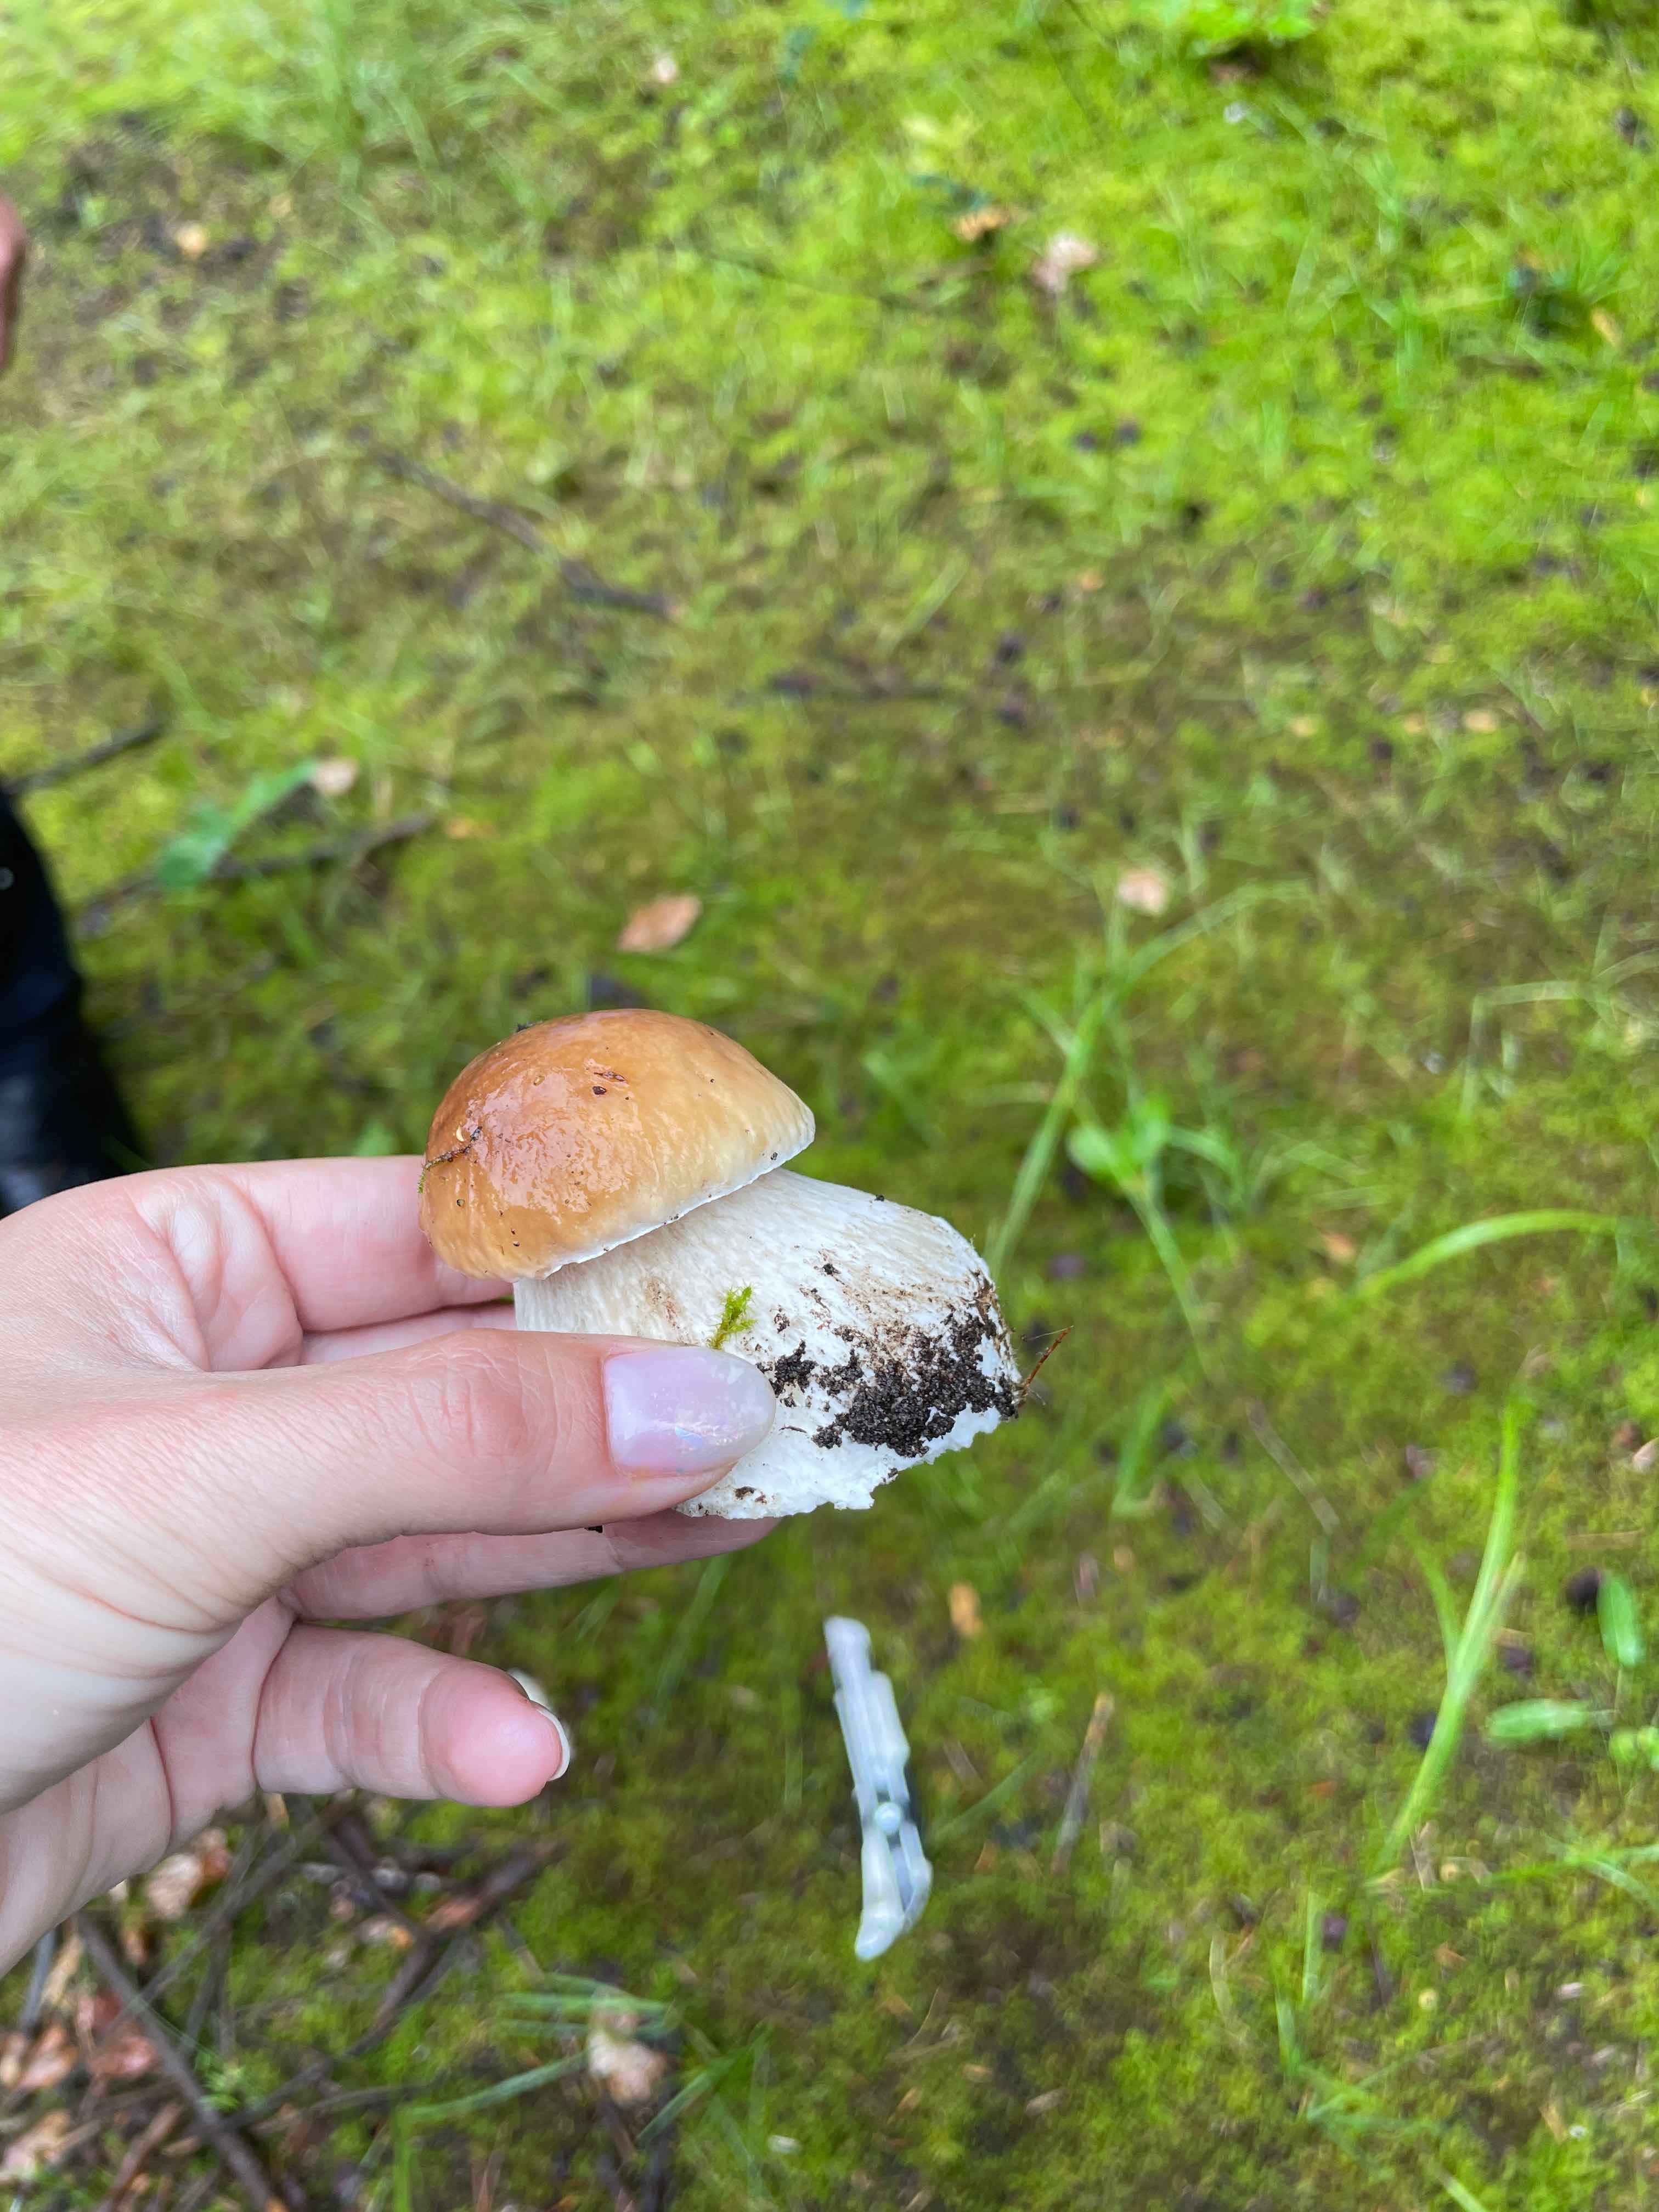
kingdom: Fungi
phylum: Basidiomycota
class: Agaricomycetes
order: Boletales
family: Boletaceae
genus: Boletus
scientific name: Boletus edulis
